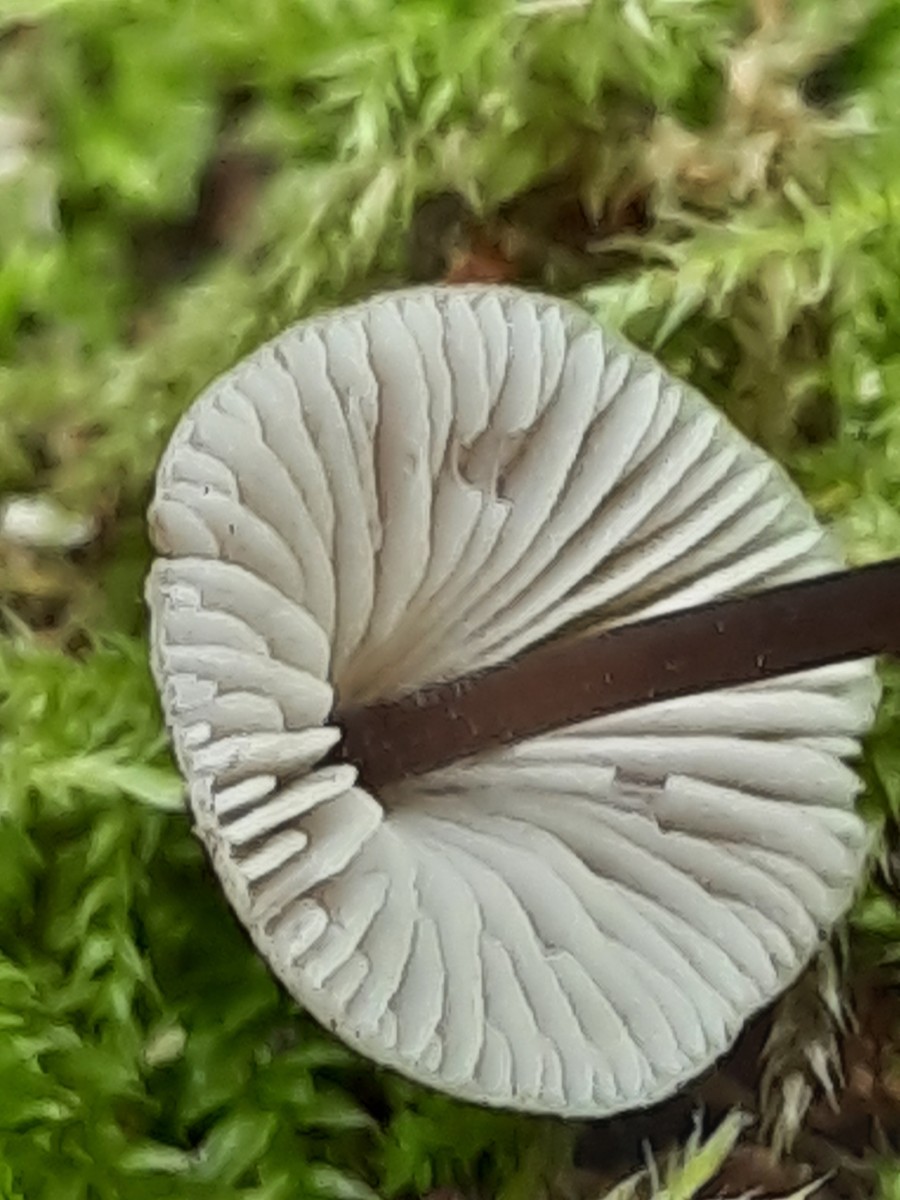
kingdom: Fungi
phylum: Basidiomycota
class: Agaricomycetes
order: Agaricales
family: Mycenaceae
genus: Mycena
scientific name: Mycena flavescens
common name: grågul huesvamp
